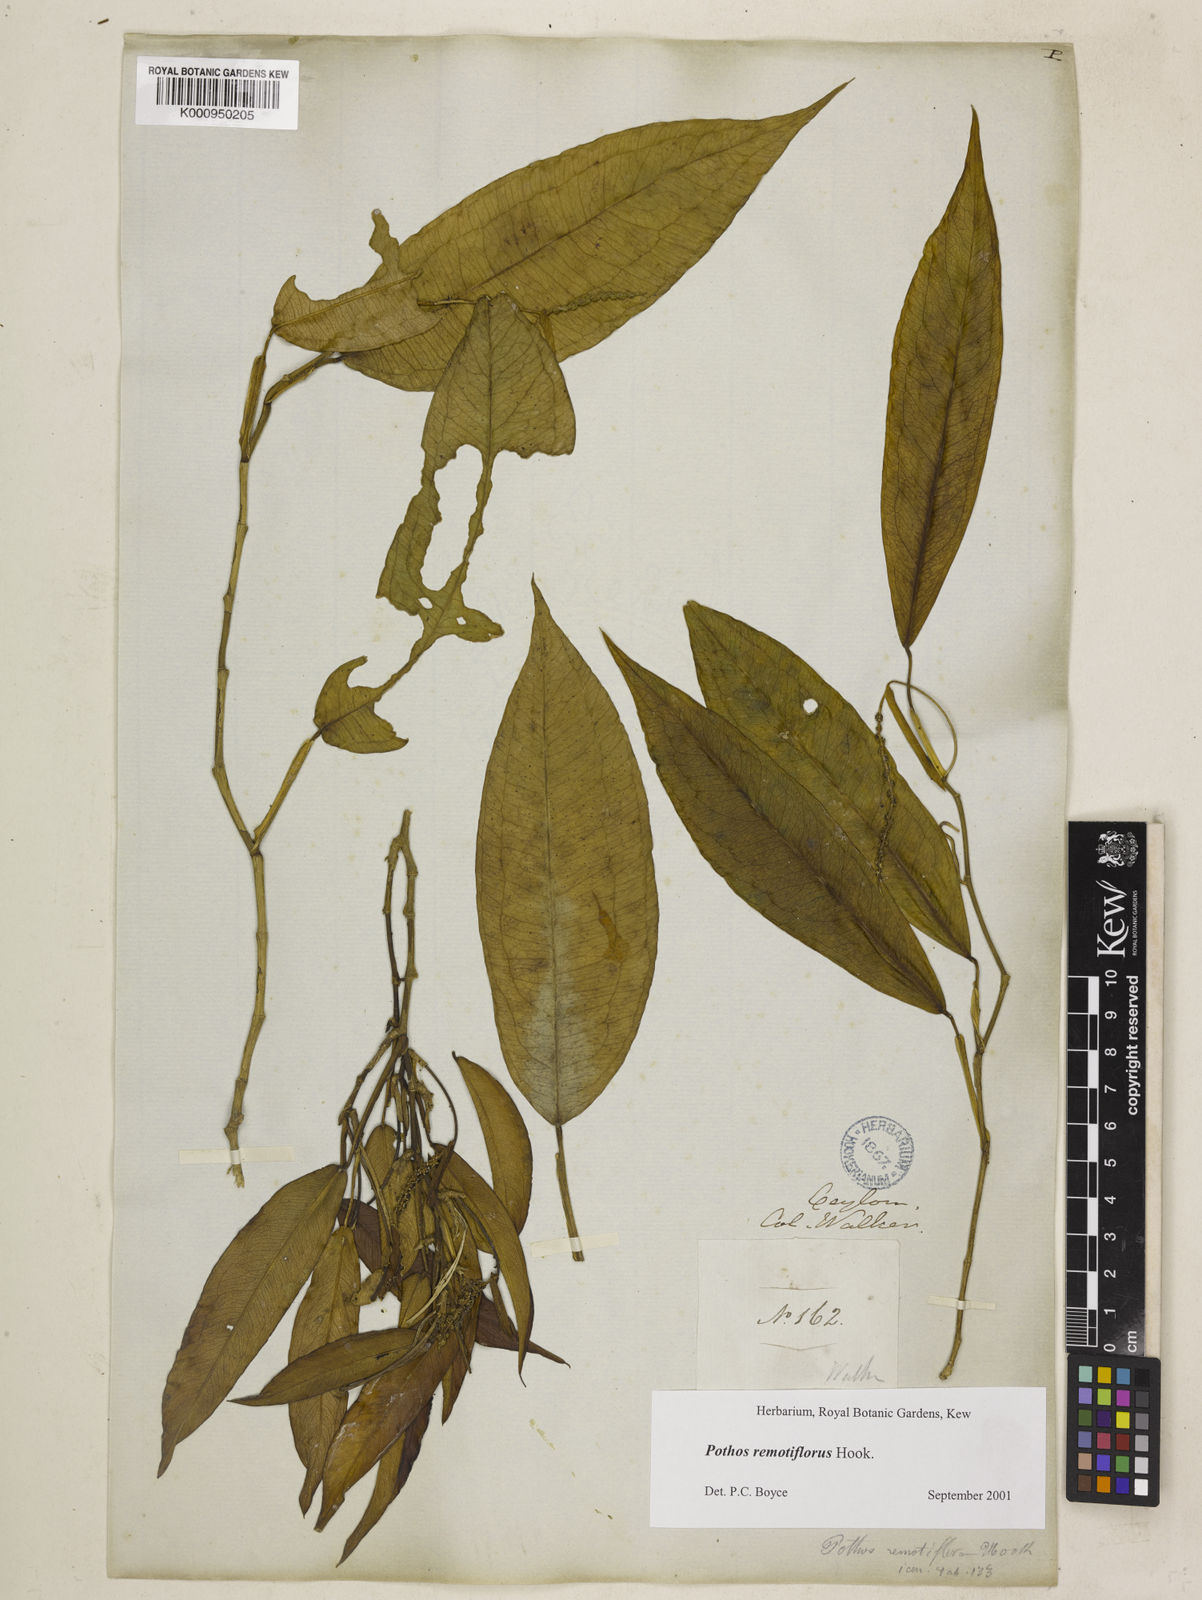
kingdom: Plantae
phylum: Tracheophyta
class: Liliopsida
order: Alismatales
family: Araceae
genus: Pothos
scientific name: Pothos remotiflorus
